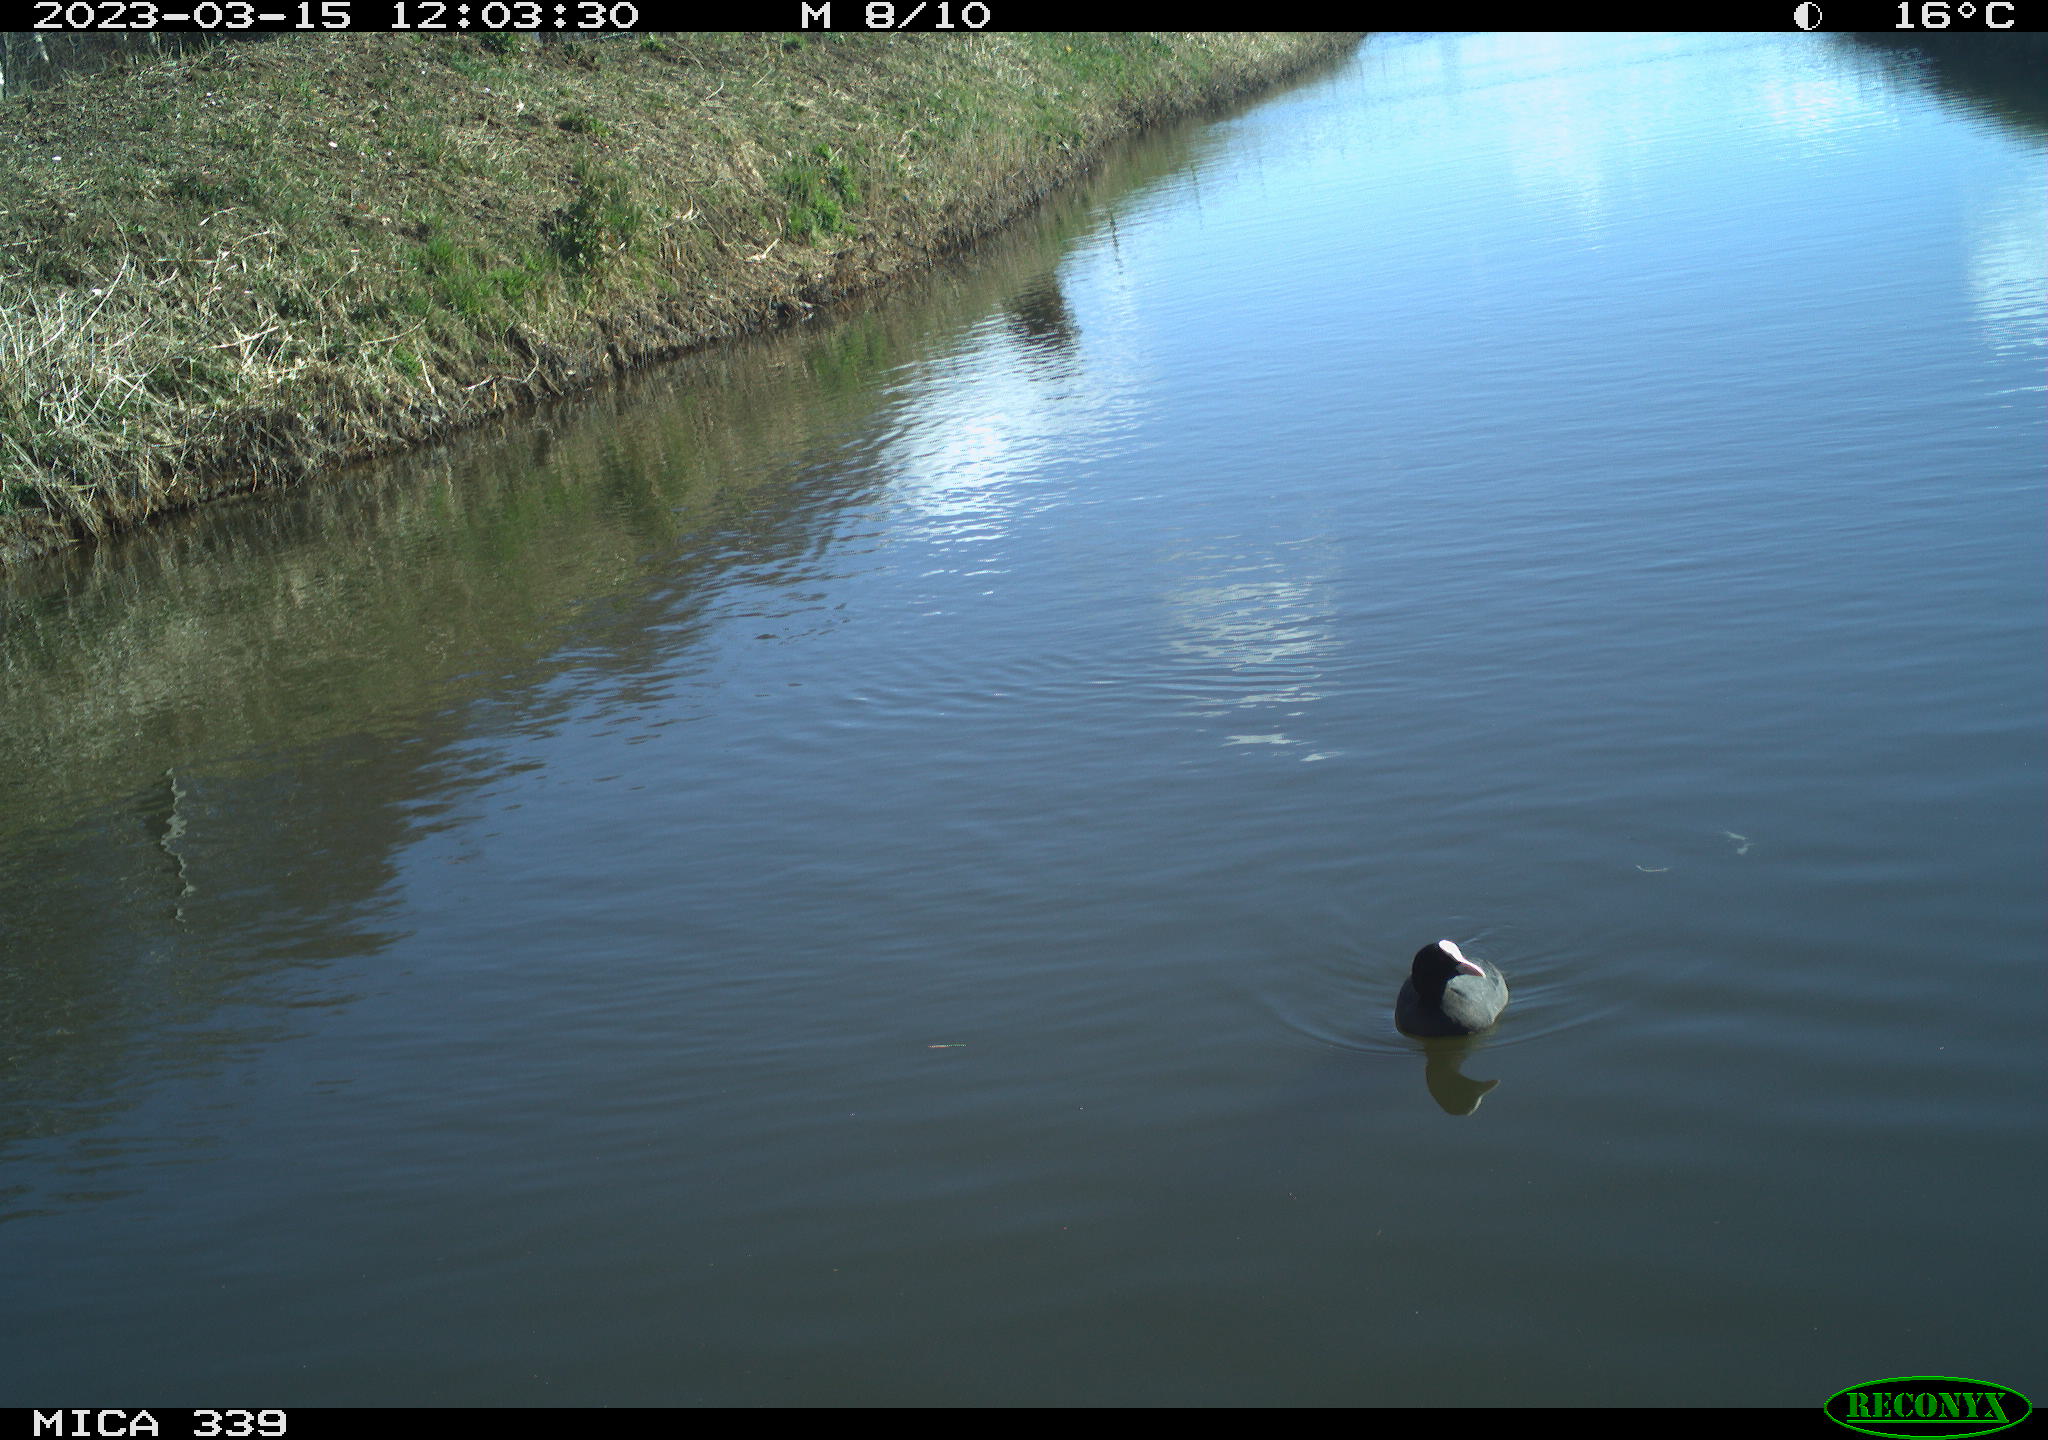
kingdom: Animalia
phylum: Chordata
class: Aves
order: Gruiformes
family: Rallidae
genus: Fulica
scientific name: Fulica atra
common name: Eurasian coot
